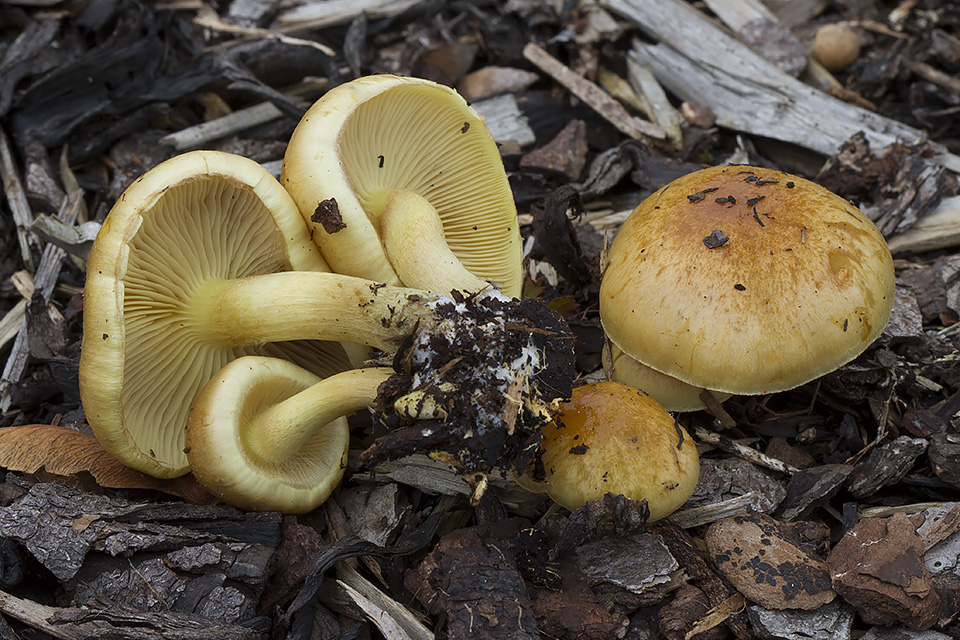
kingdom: Fungi
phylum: Basidiomycota
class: Agaricomycetes
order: Agaricales
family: Strophariaceae
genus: Pholiota
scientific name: Pholiota spumosa
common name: gran-skælhat
